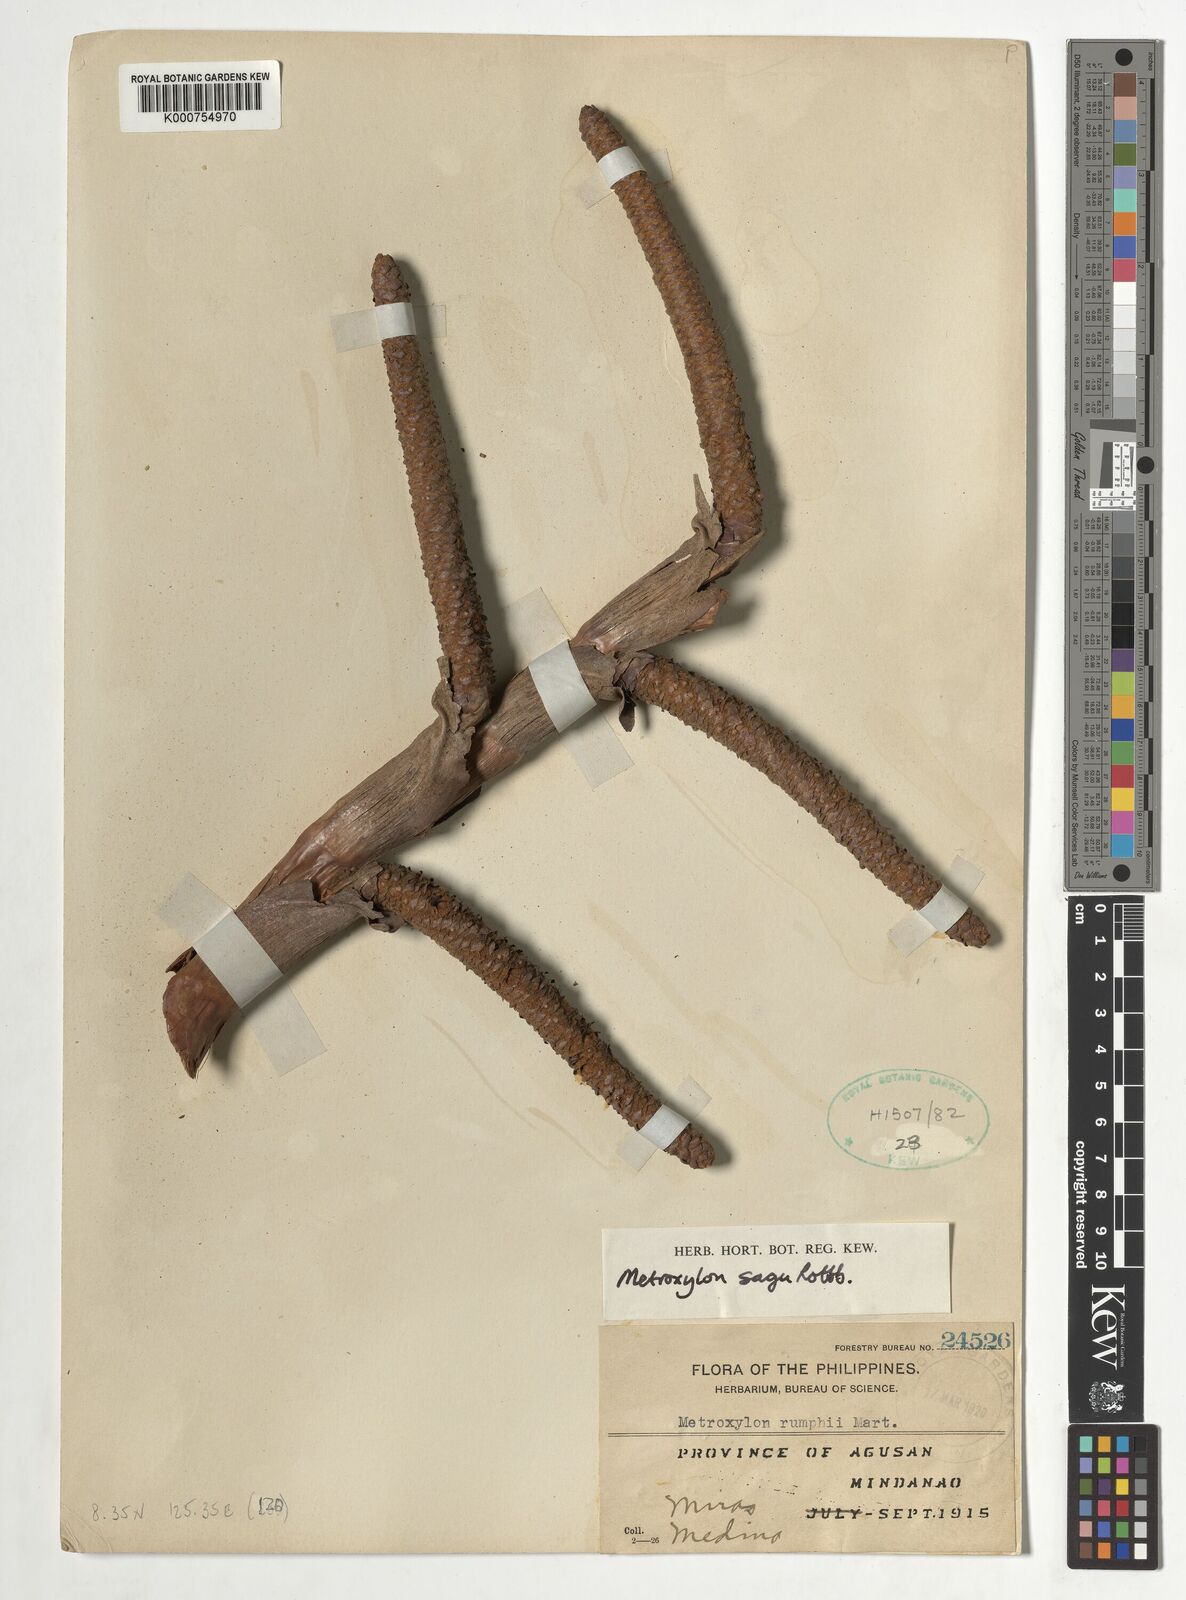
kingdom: Plantae
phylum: Tracheophyta
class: Liliopsida
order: Arecales
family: Arecaceae
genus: Metroxylon
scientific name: Metroxylon sagu
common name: Sago palm
